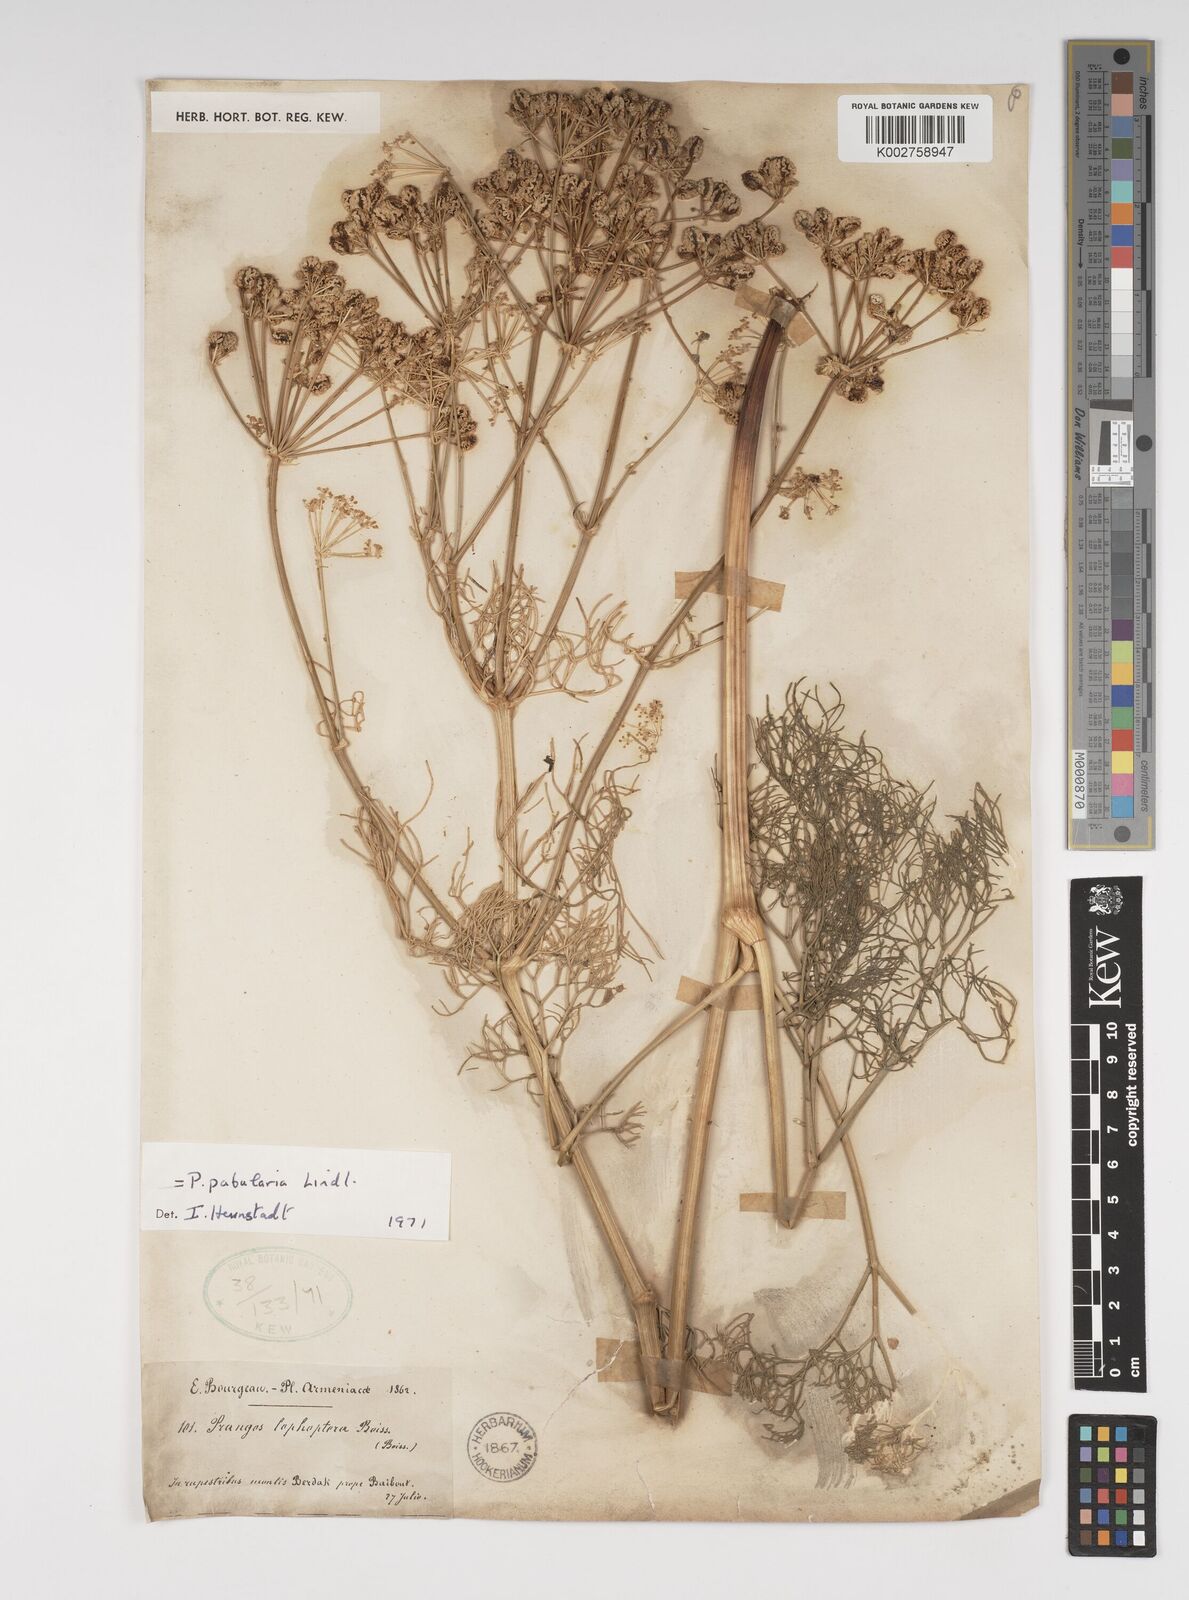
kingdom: Plantae
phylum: Tracheophyta
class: Magnoliopsida
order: Apiales
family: Apiaceae
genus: Prangos
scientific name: Prangos pabularia
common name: Yugan
